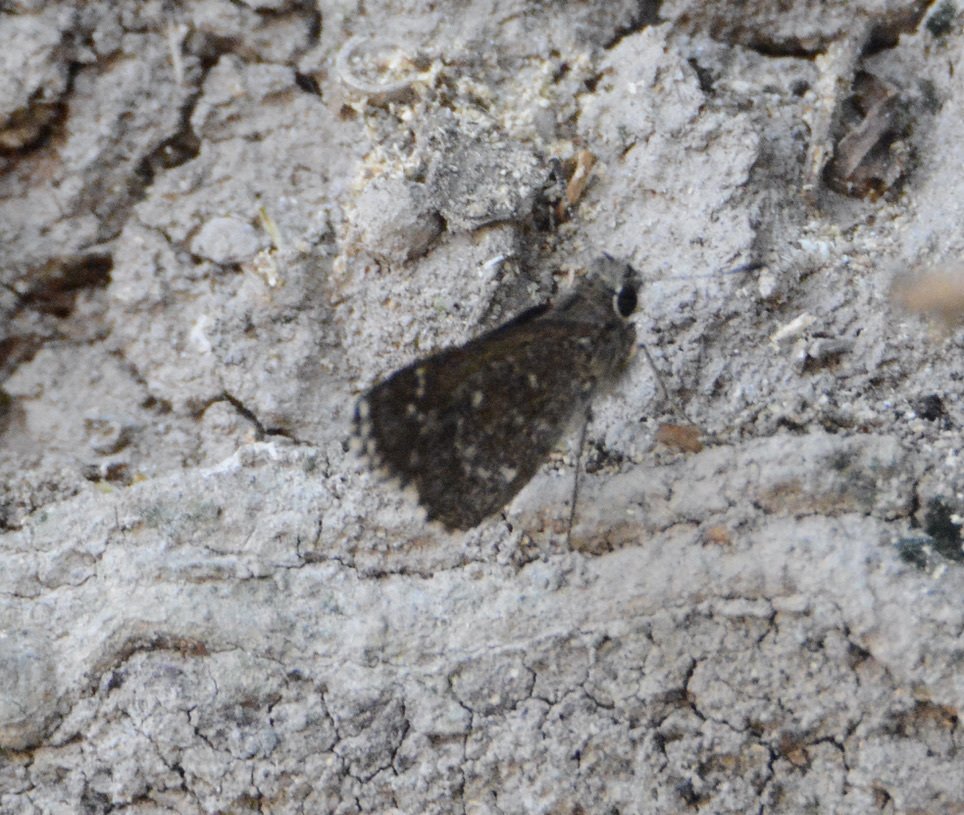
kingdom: Animalia
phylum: Arthropoda
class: Insecta
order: Lepidoptera
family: Hesperiidae
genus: Mastor
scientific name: Mastor celia
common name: Celia's Roadside-Skipper
